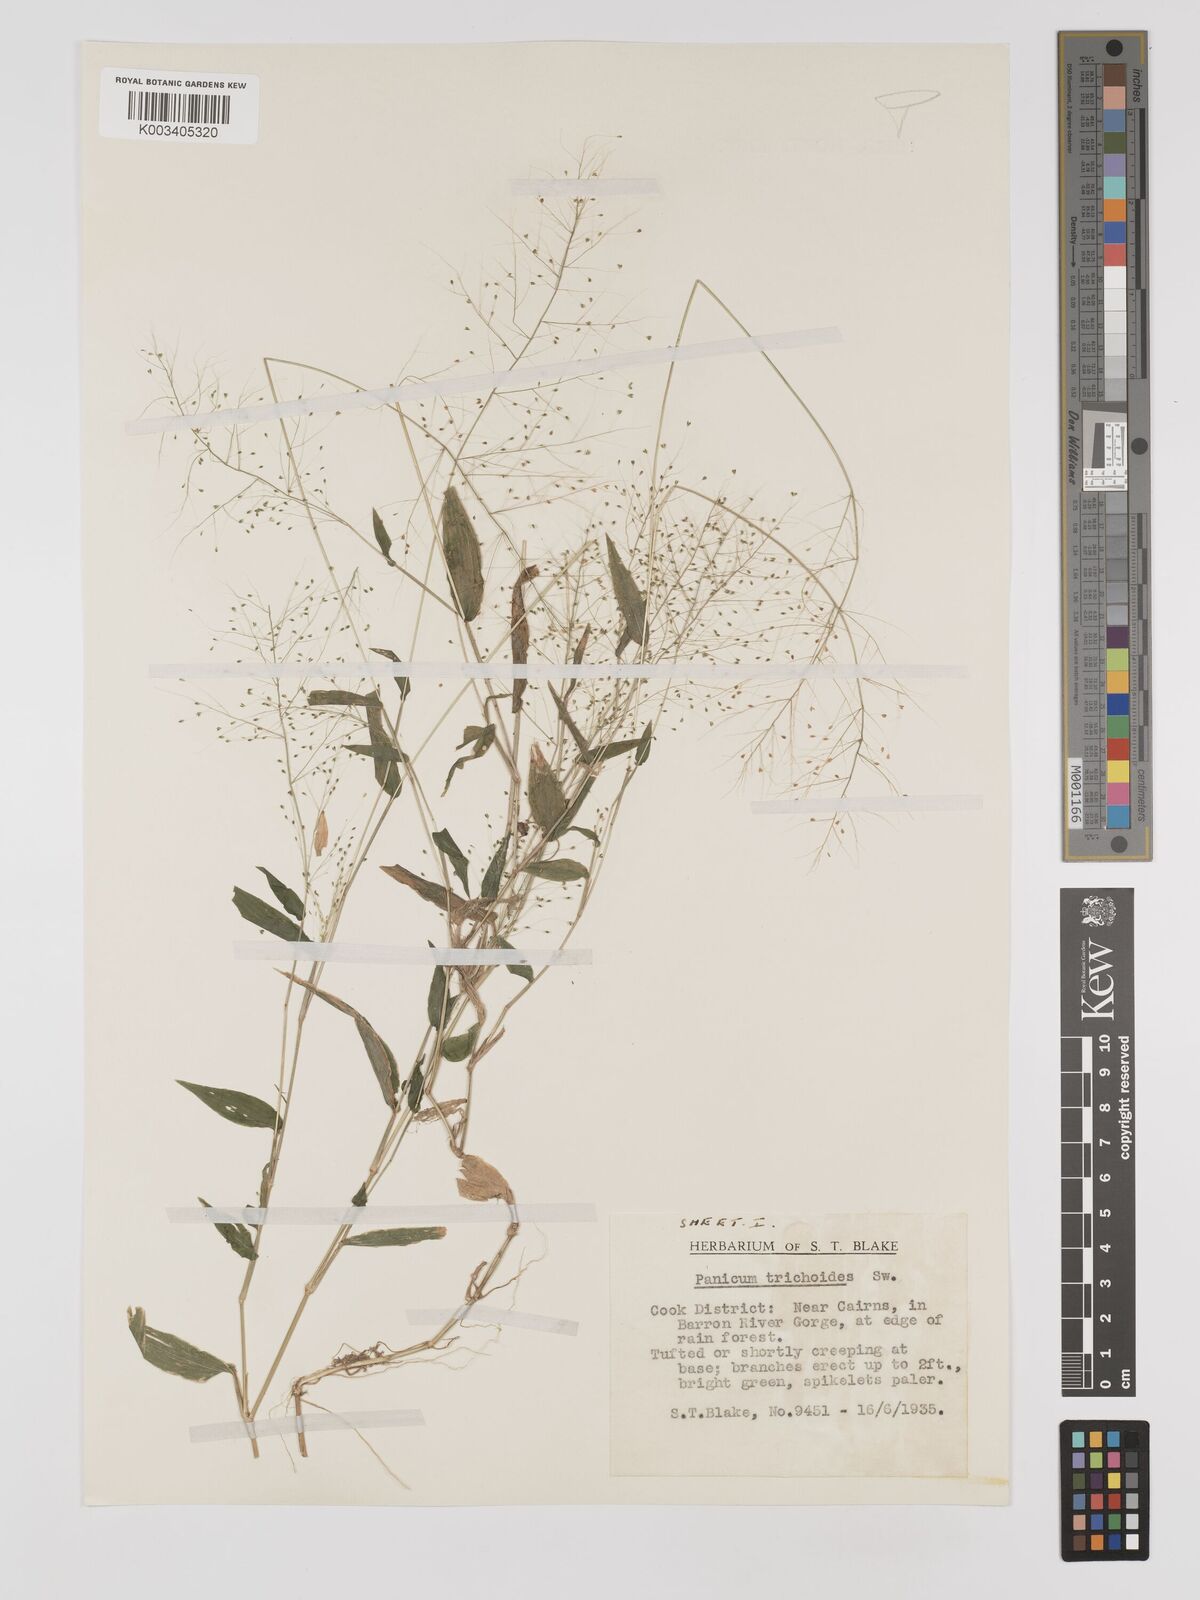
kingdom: Plantae
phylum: Tracheophyta
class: Liliopsida
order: Poales
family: Poaceae
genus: Panicum
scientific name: Panicum trichoides
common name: Tickle grass
